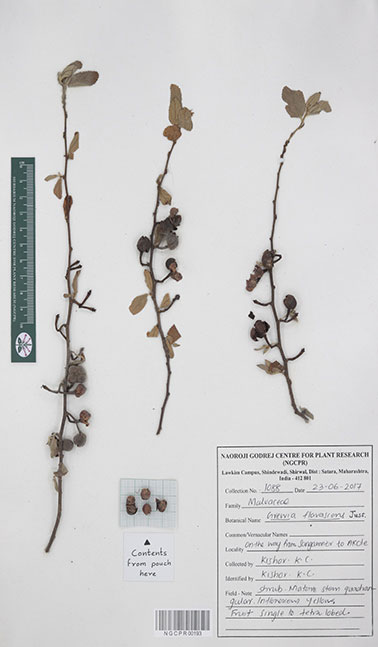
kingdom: Plantae
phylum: Tracheophyta
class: Magnoliopsida
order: Malvales
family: Malvaceae
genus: Grewia
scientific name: Grewia flavescens
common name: Sandpaper raisin
